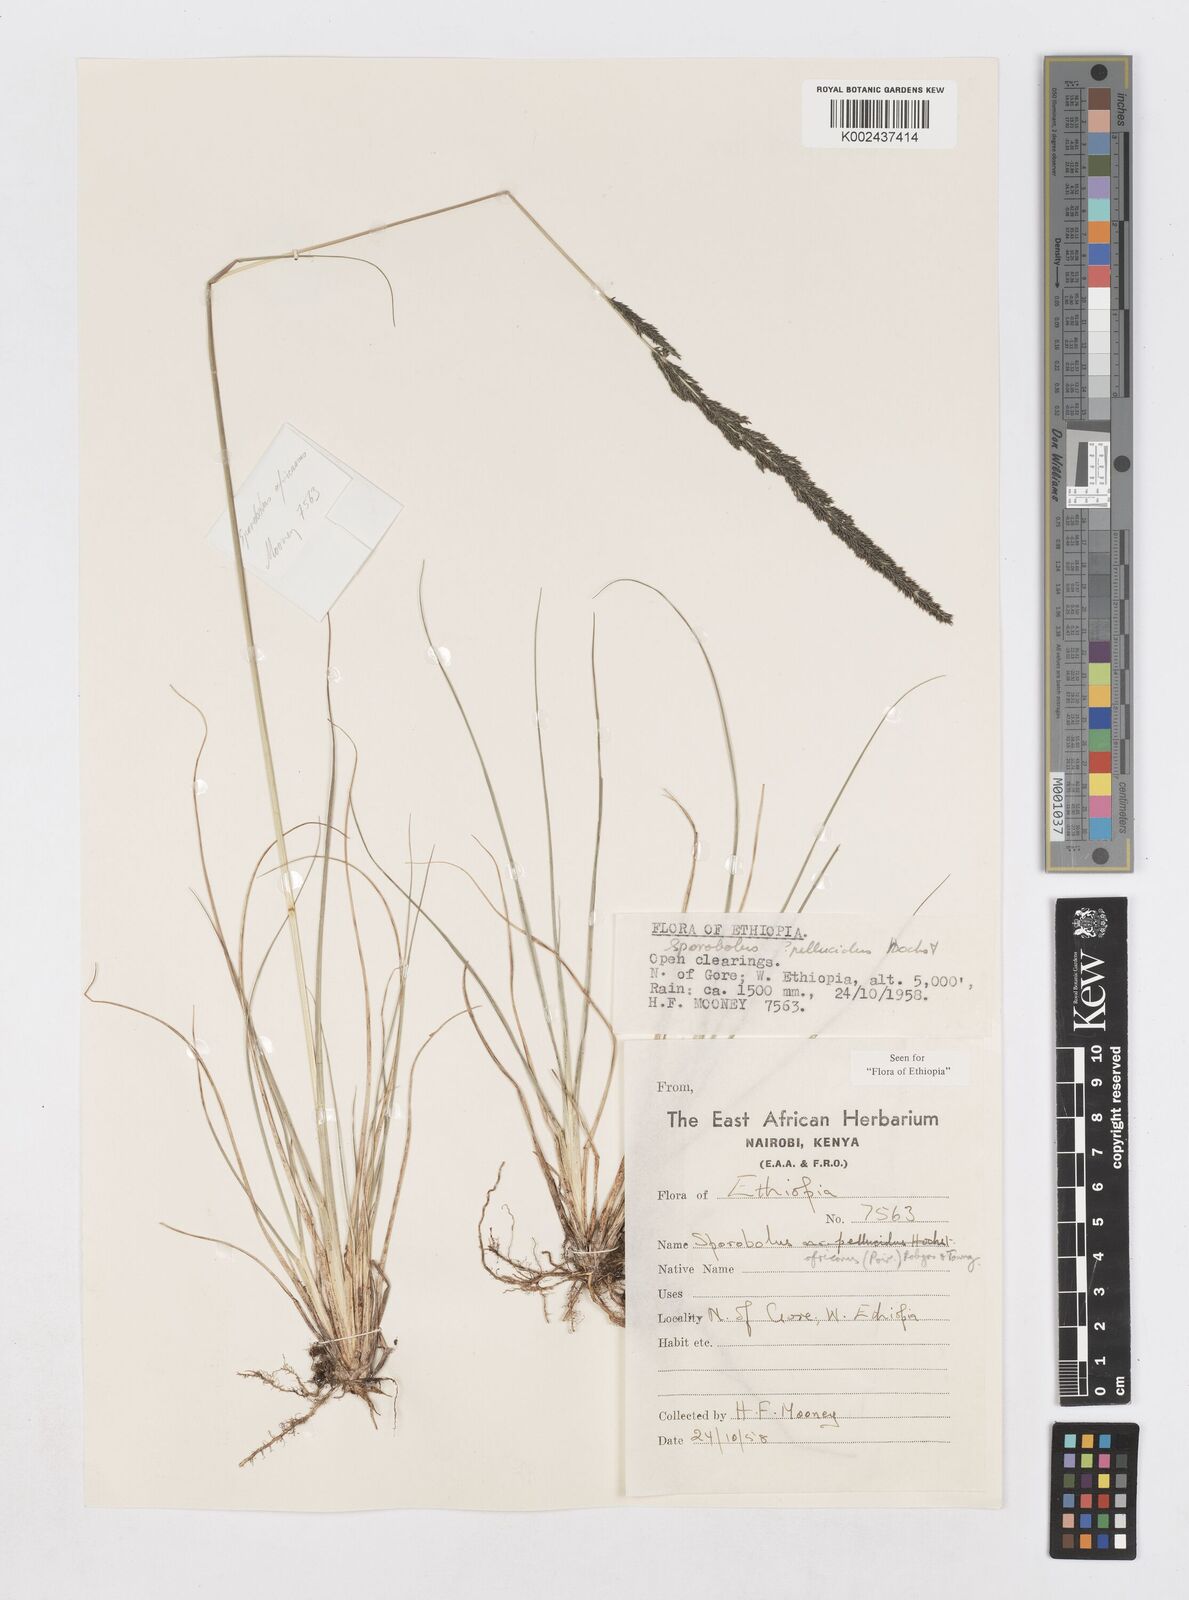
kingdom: Plantae
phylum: Tracheophyta
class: Liliopsida
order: Poales
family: Poaceae
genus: Sporobolus
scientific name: Sporobolus africanus
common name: African dropseed
